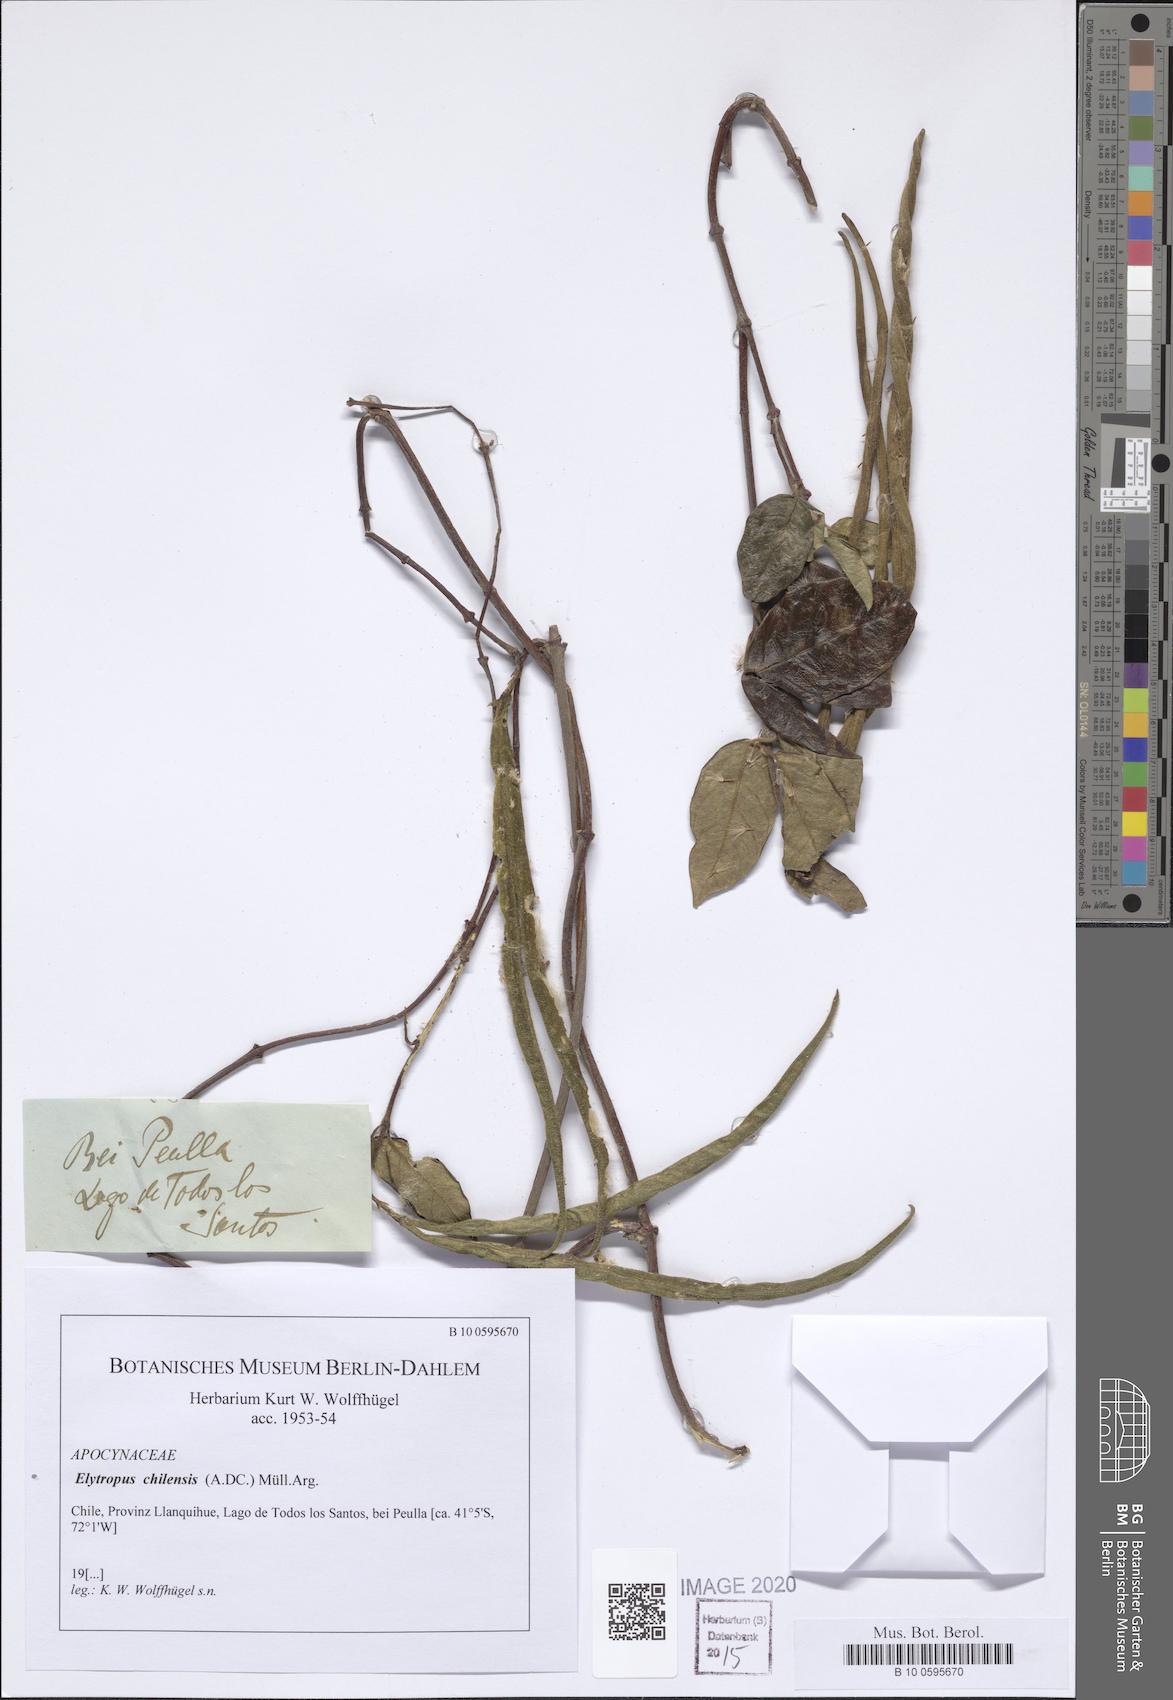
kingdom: Plantae
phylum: Tracheophyta
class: Magnoliopsida
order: Gentianales
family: Apocynaceae
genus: Mandevilla
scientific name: Mandevilla pubescens
